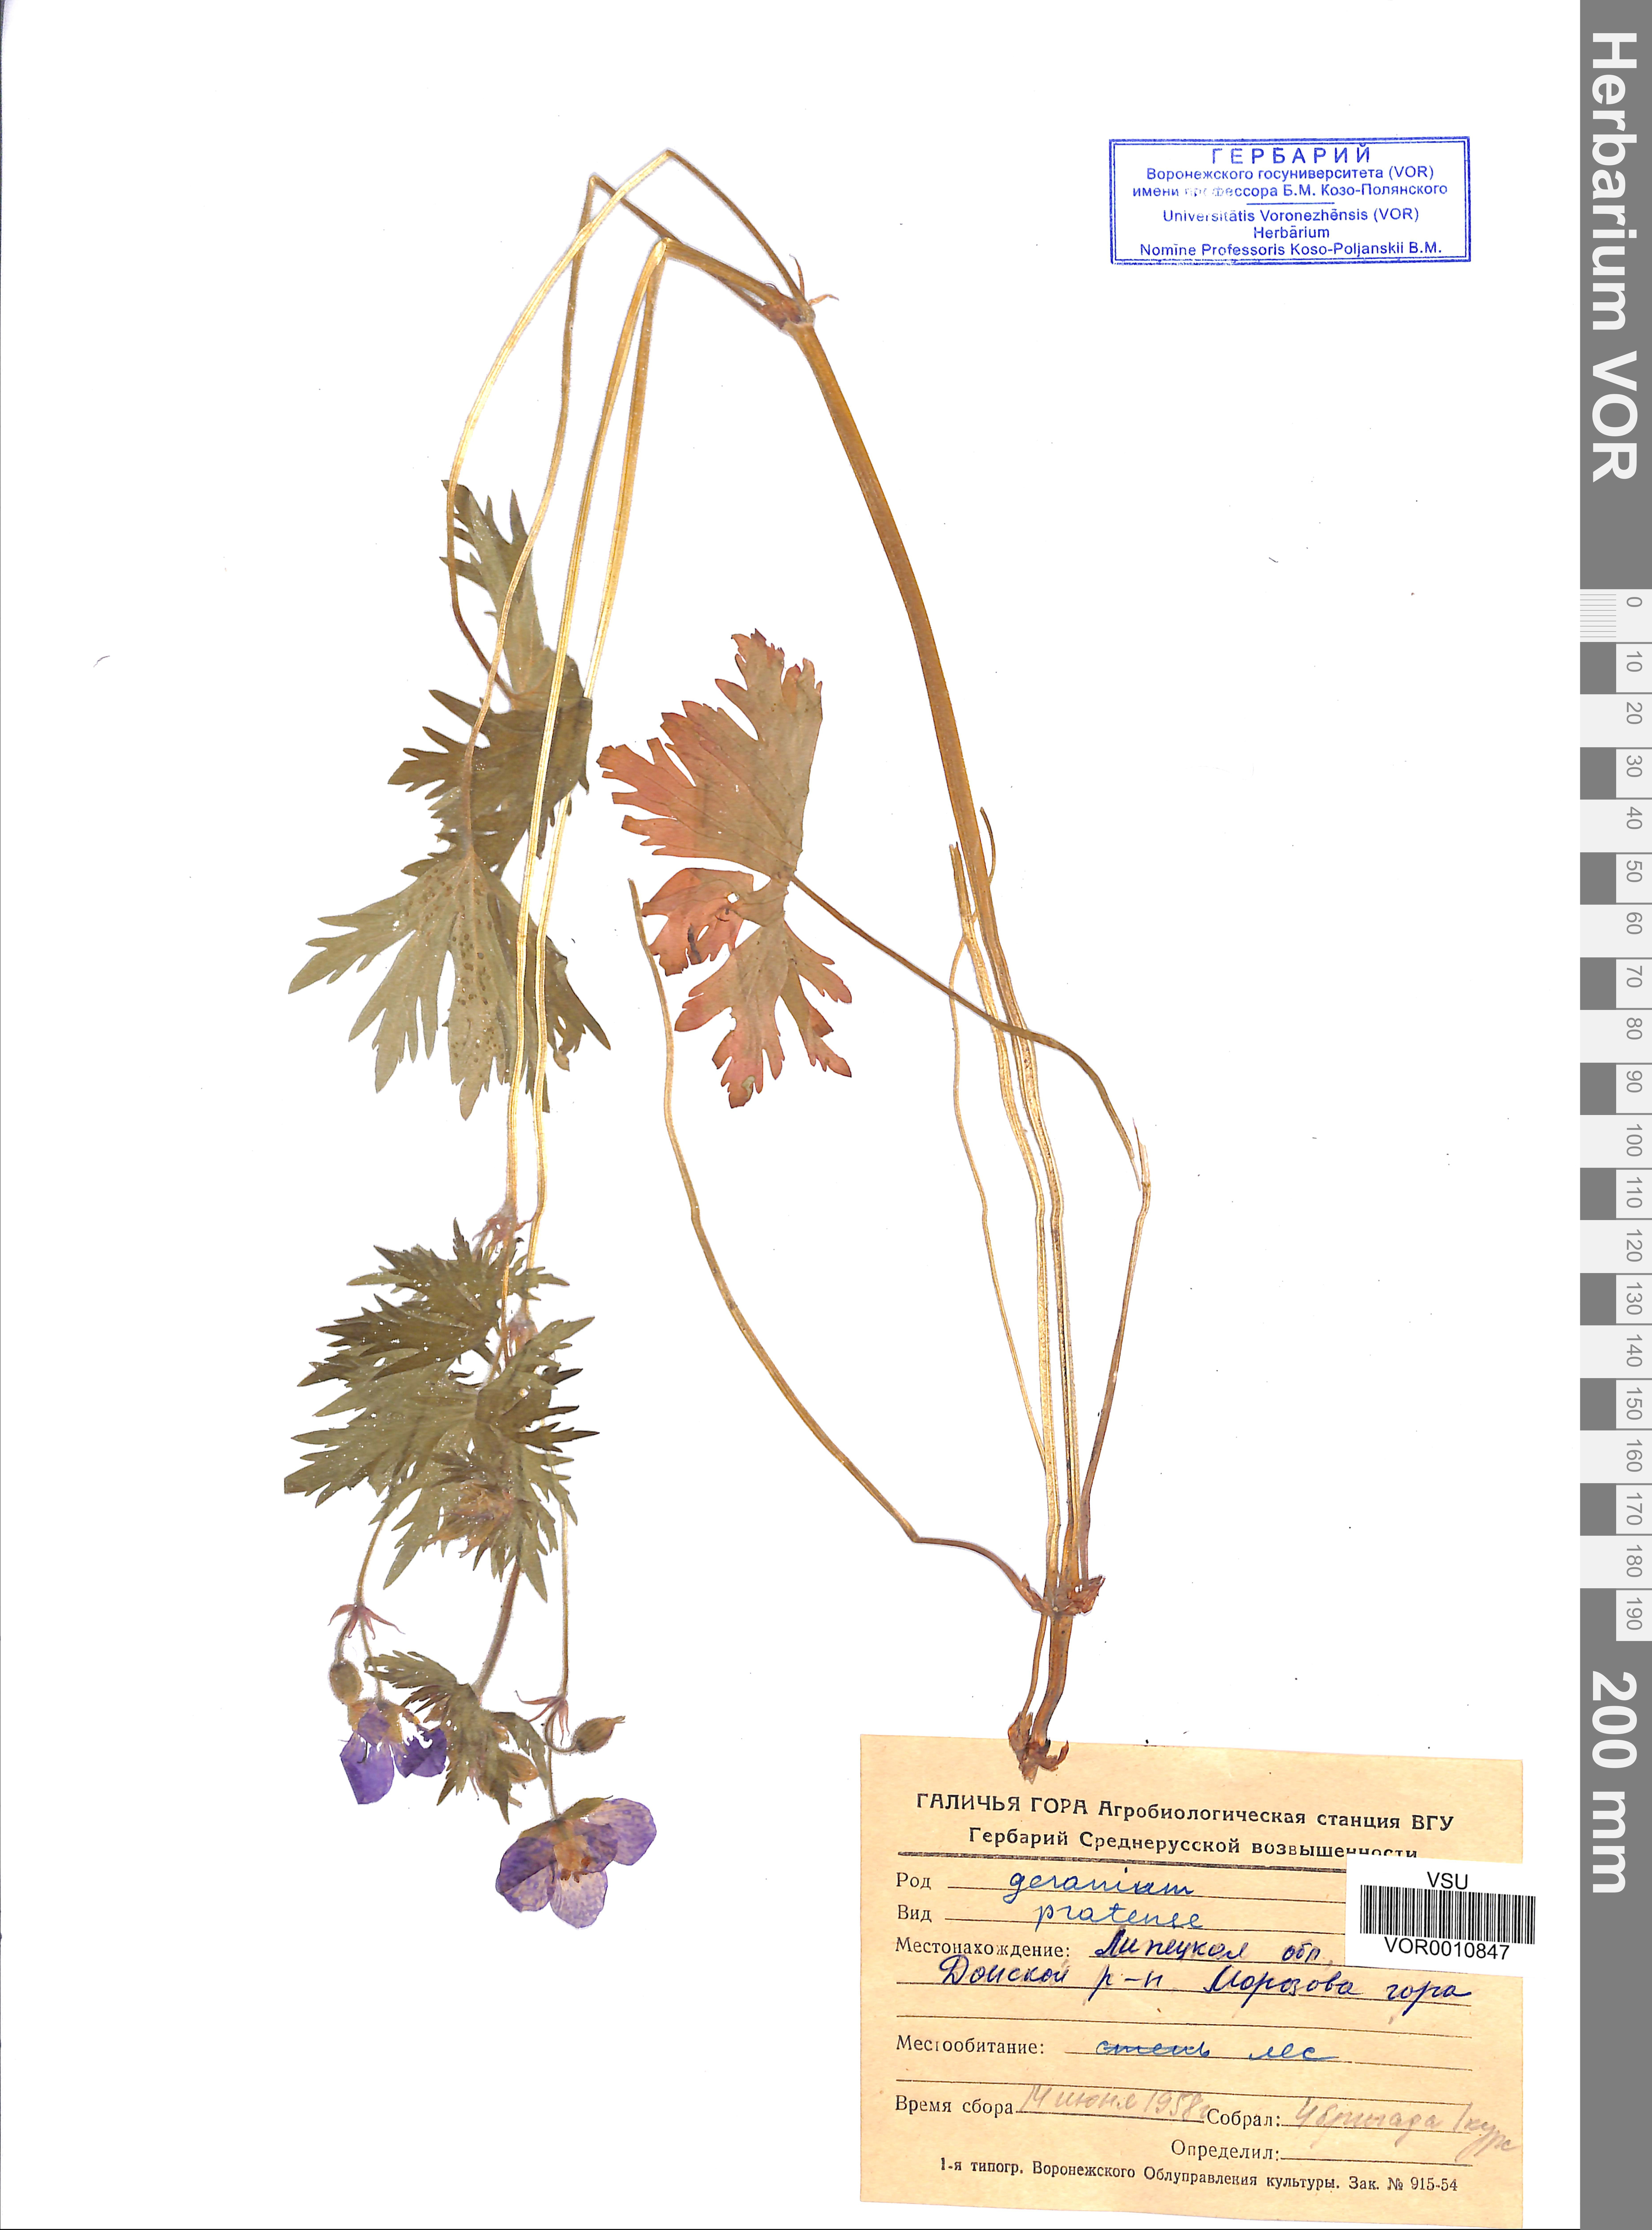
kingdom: Plantae
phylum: Tracheophyta
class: Magnoliopsida
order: Geraniales
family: Geraniaceae
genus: Geranium
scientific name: Geranium pratense
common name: Meadow crane's-bill
